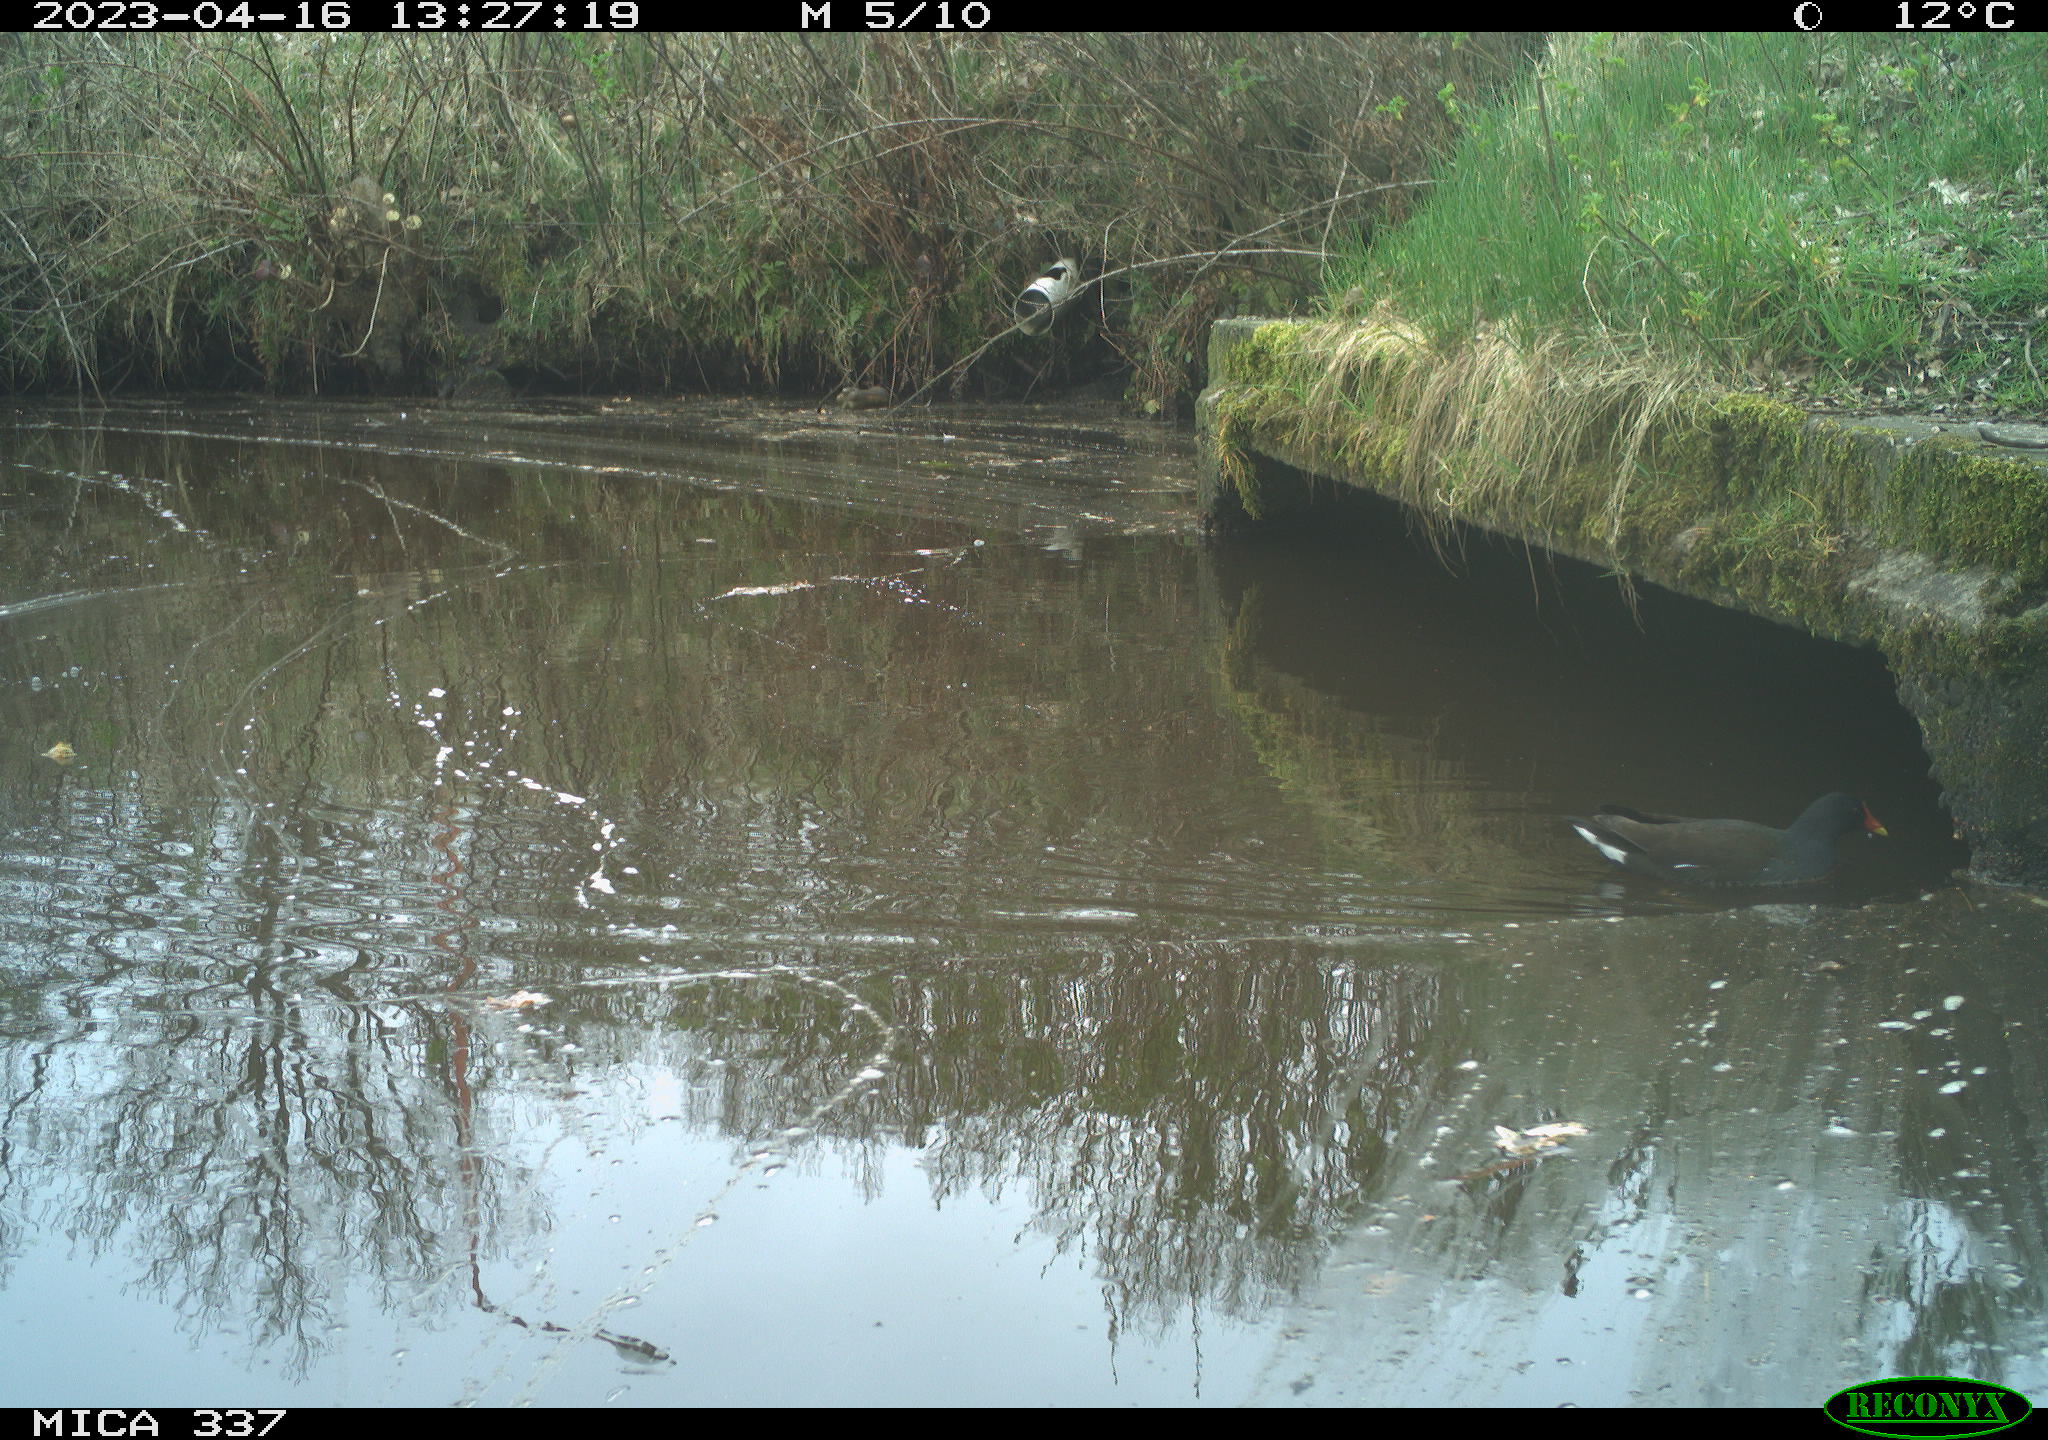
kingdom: Animalia
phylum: Chordata
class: Aves
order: Gruiformes
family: Rallidae
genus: Gallinula
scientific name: Gallinula chloropus
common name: Common moorhen
